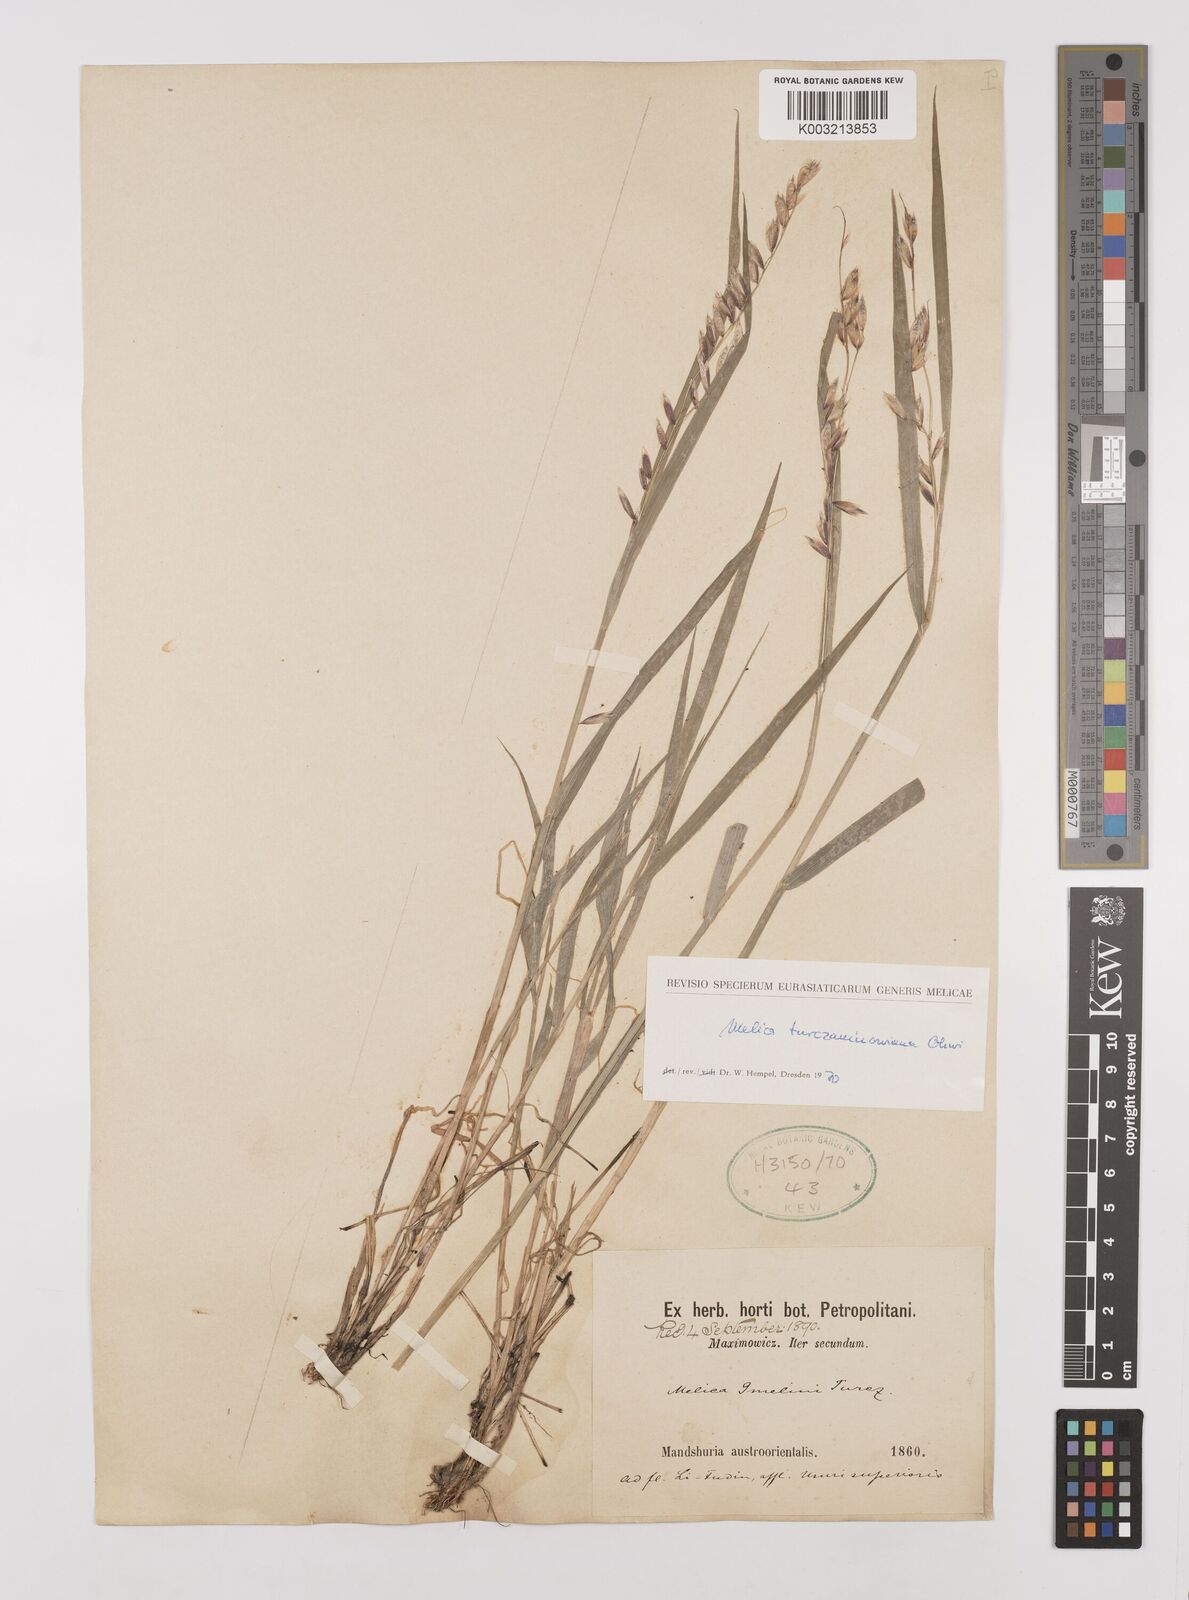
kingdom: Plantae
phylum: Tracheophyta
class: Liliopsida
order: Poales
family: Poaceae
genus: Melica
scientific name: Melica turczaninowiana
